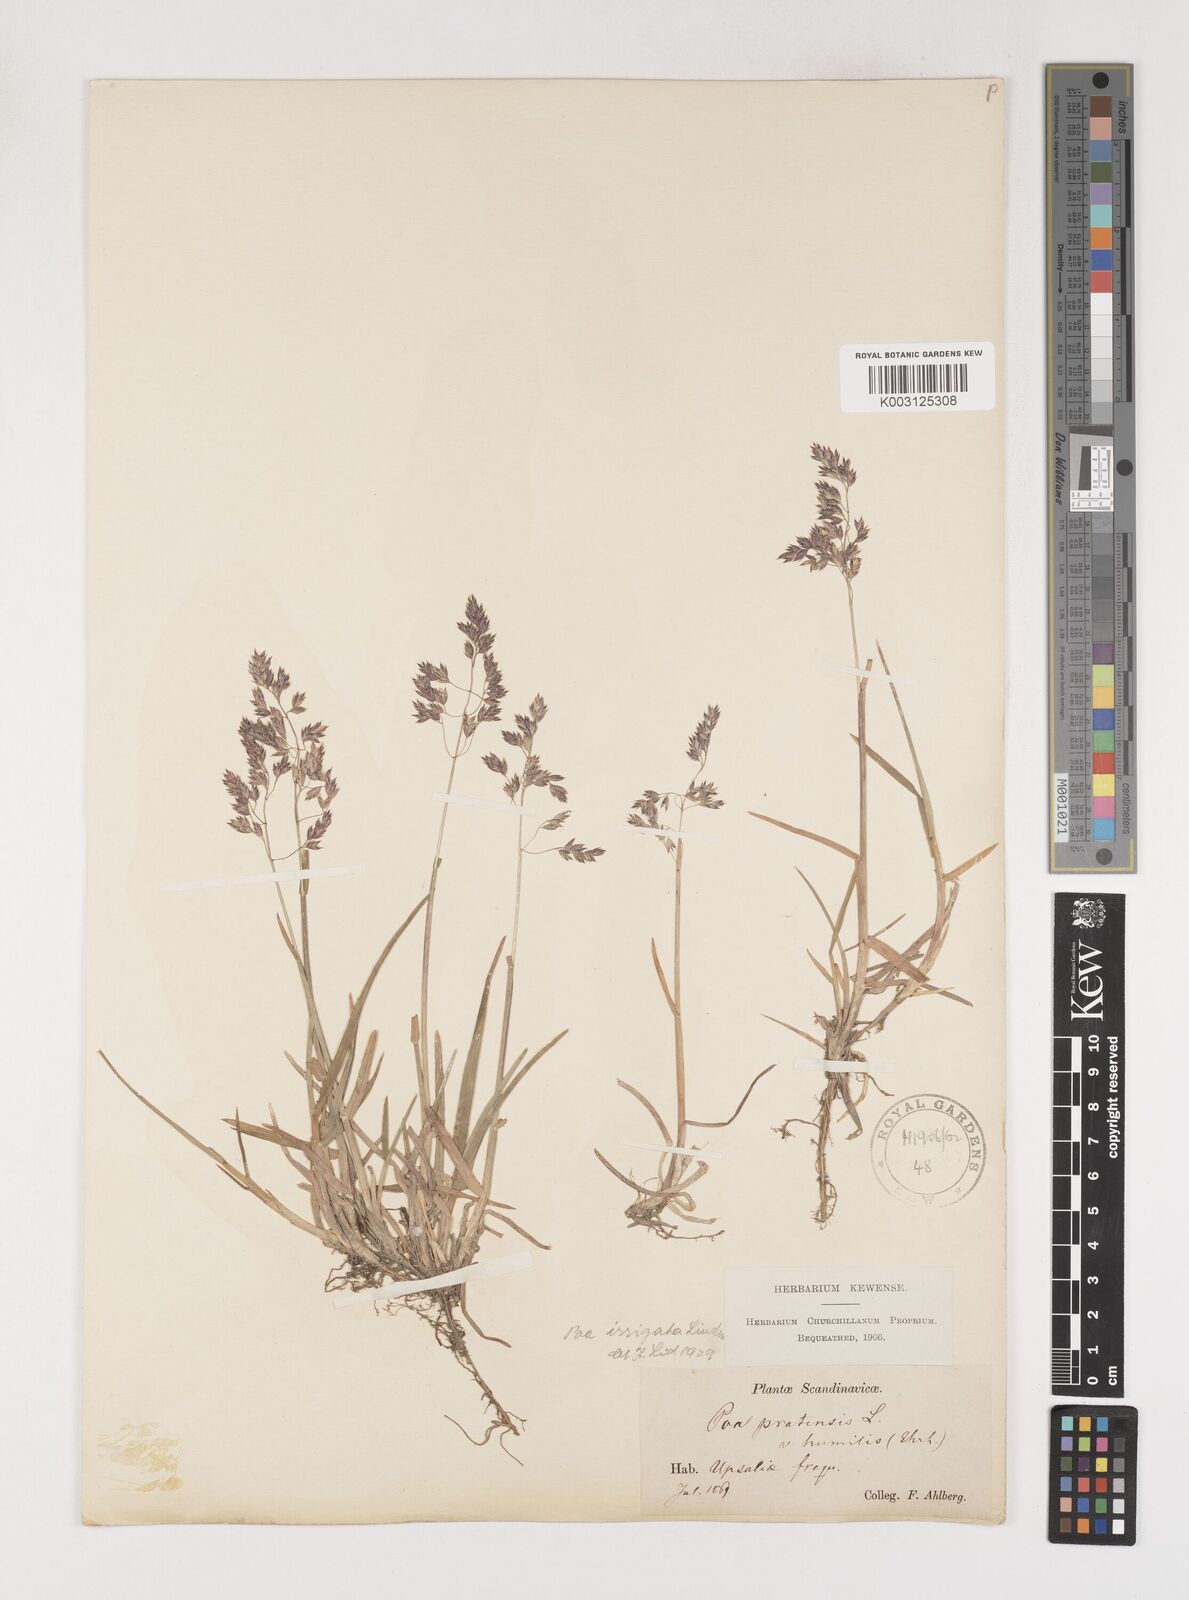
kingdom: Plantae
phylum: Tracheophyta
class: Liliopsida
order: Poales
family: Poaceae
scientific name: Poaceae
